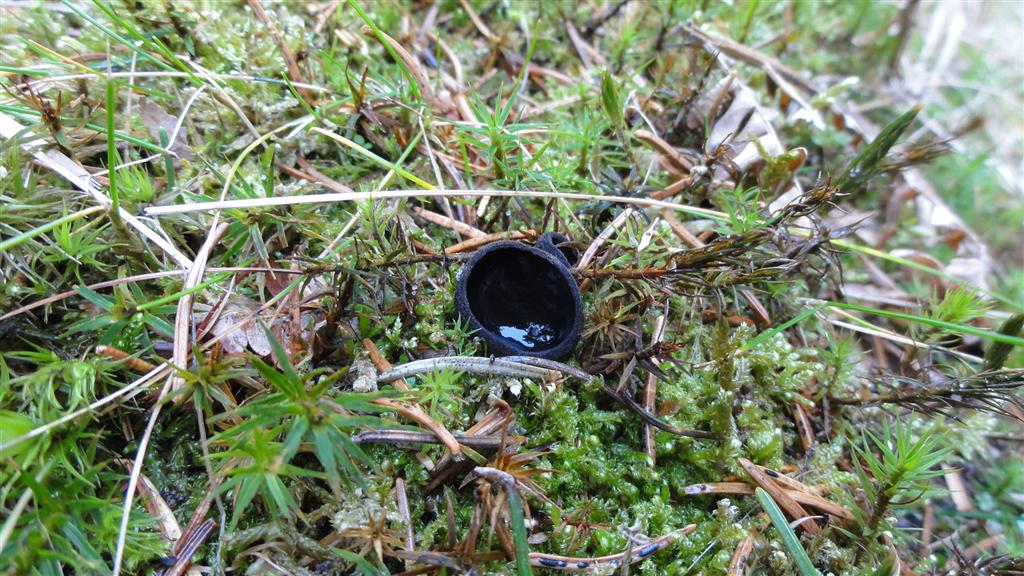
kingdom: Fungi
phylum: Ascomycota
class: Pezizomycetes
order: Pezizales
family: Sarcosomataceae
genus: Pseudoplectania
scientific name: Pseudoplectania nigrella
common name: almindelig sortbæger
